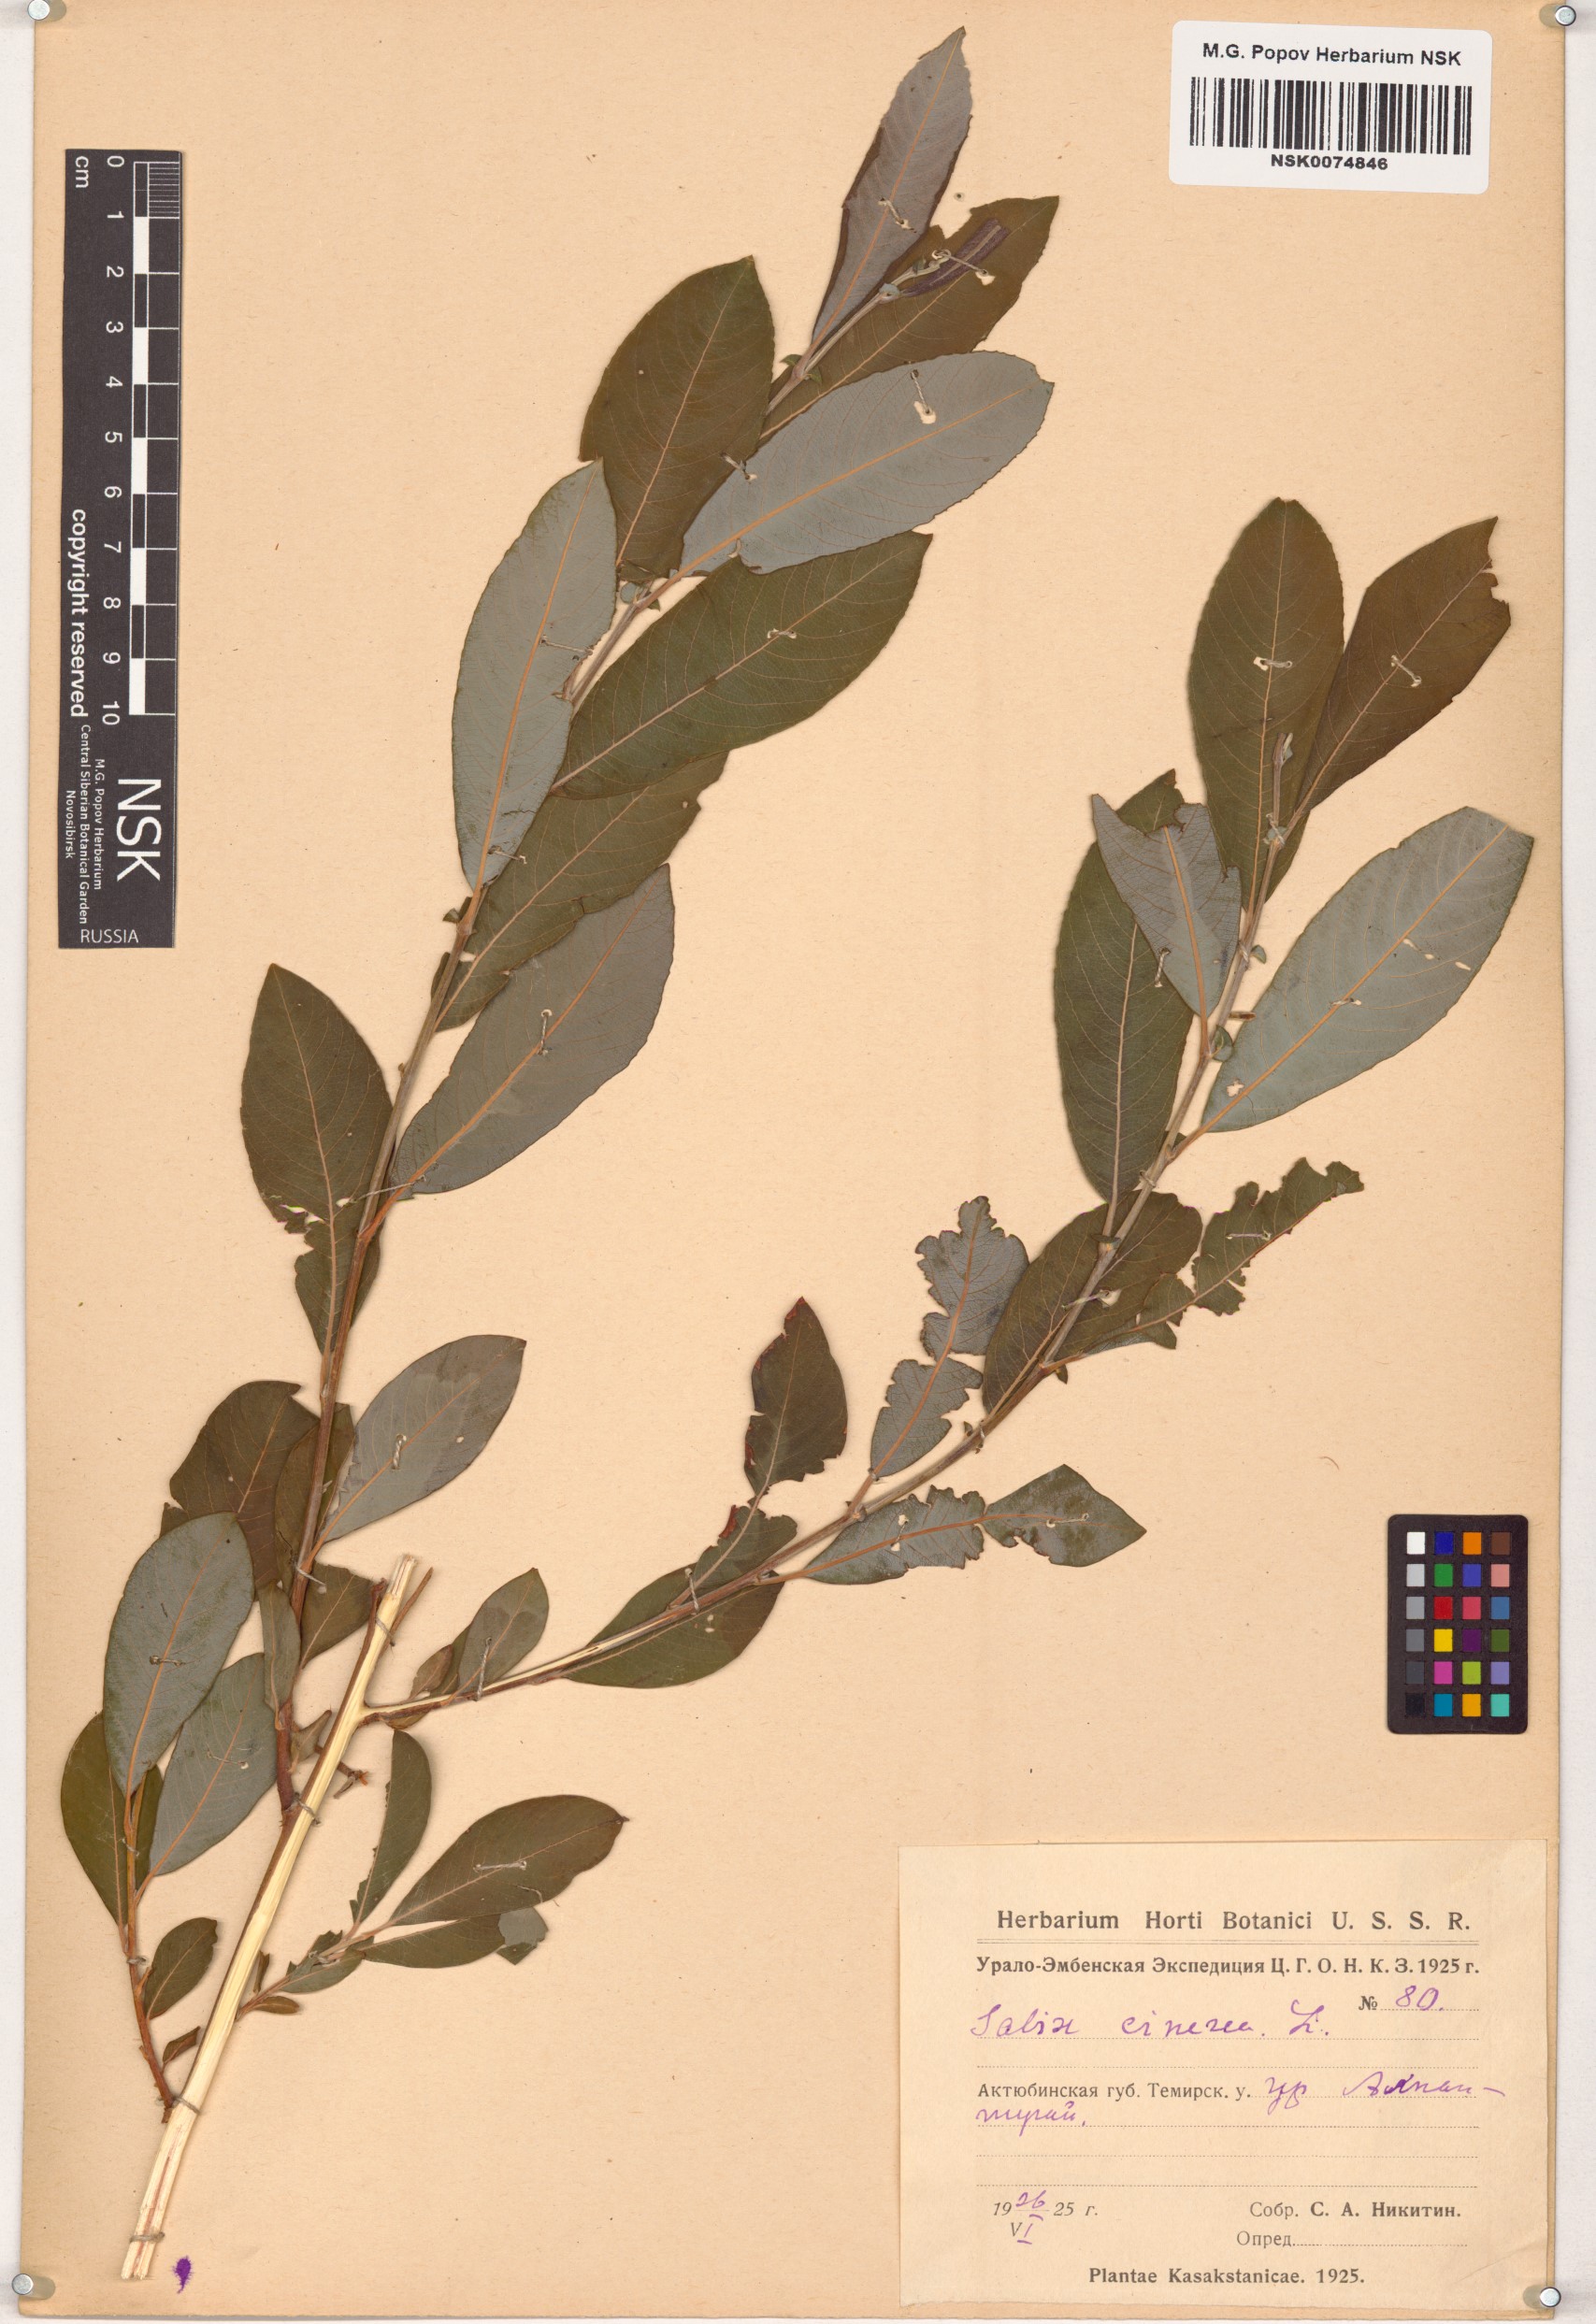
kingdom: Plantae
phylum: Tracheophyta
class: Magnoliopsida
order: Malpighiales
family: Salicaceae
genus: Salix
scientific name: Salix cinerea
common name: Common sallow
